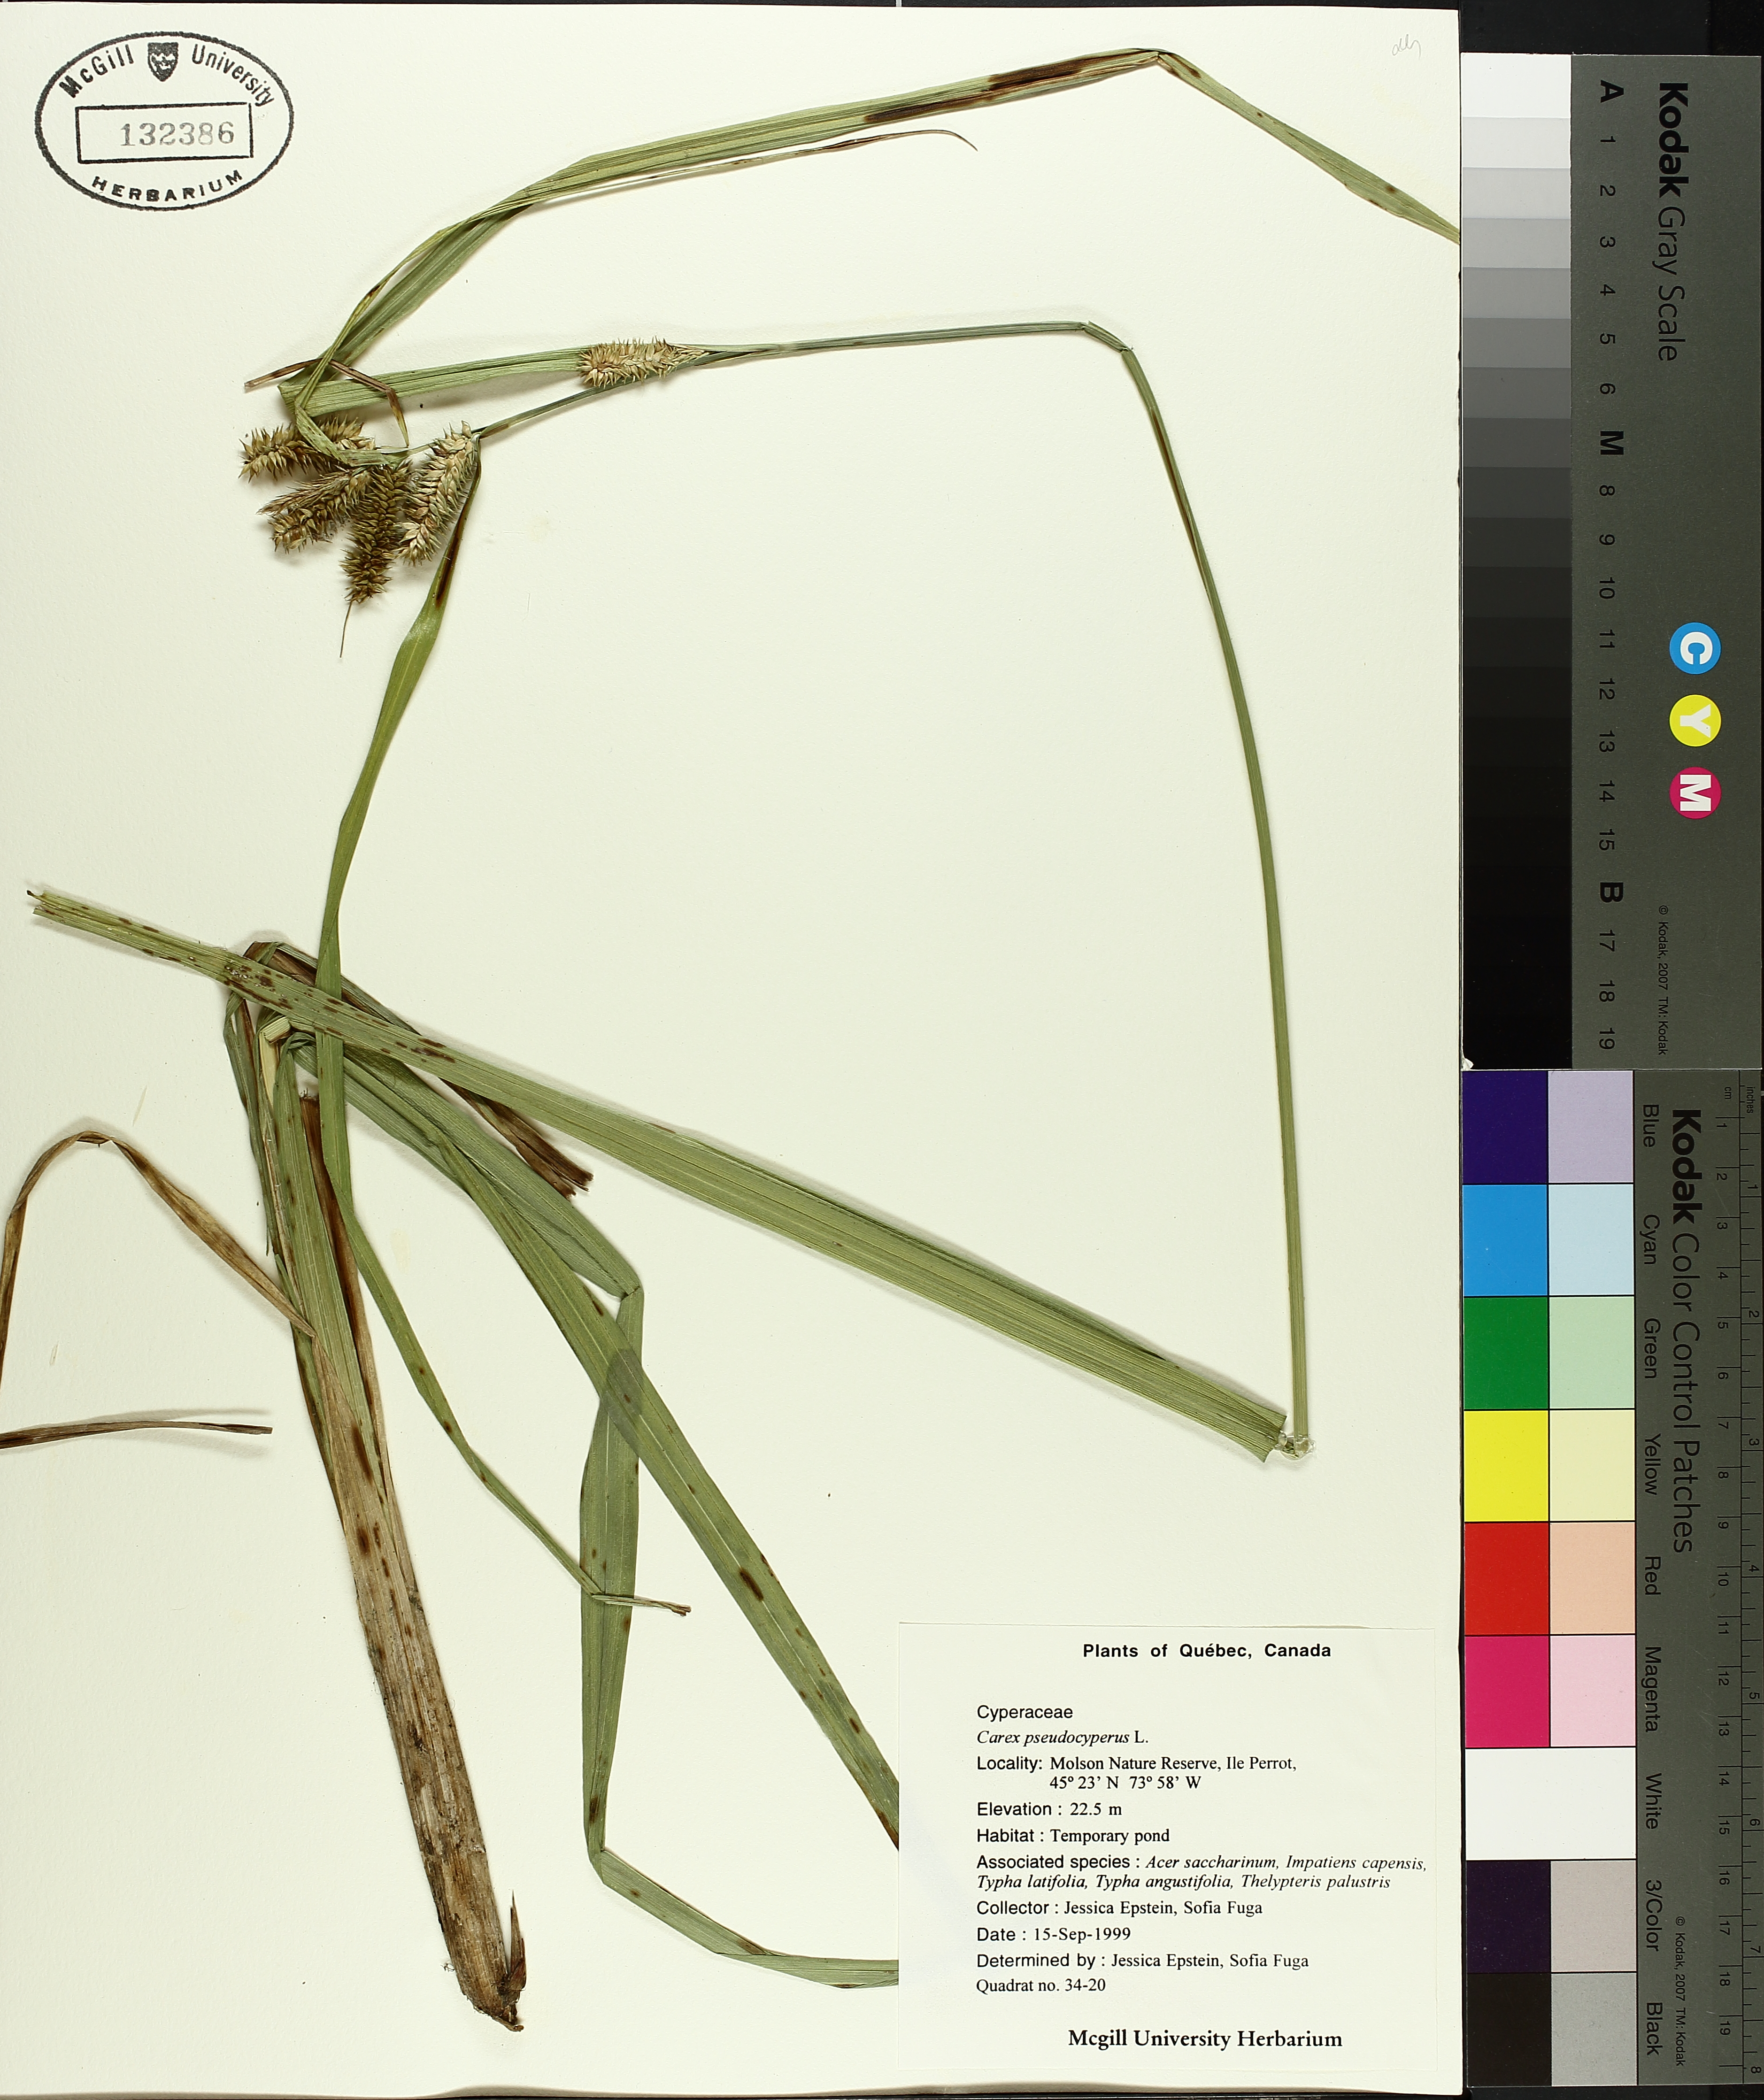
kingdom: Plantae
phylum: Tracheophyta
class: Liliopsida
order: Poales
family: Cyperaceae
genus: Carex
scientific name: Carex pseudocyperus
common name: Cyperus sedge
